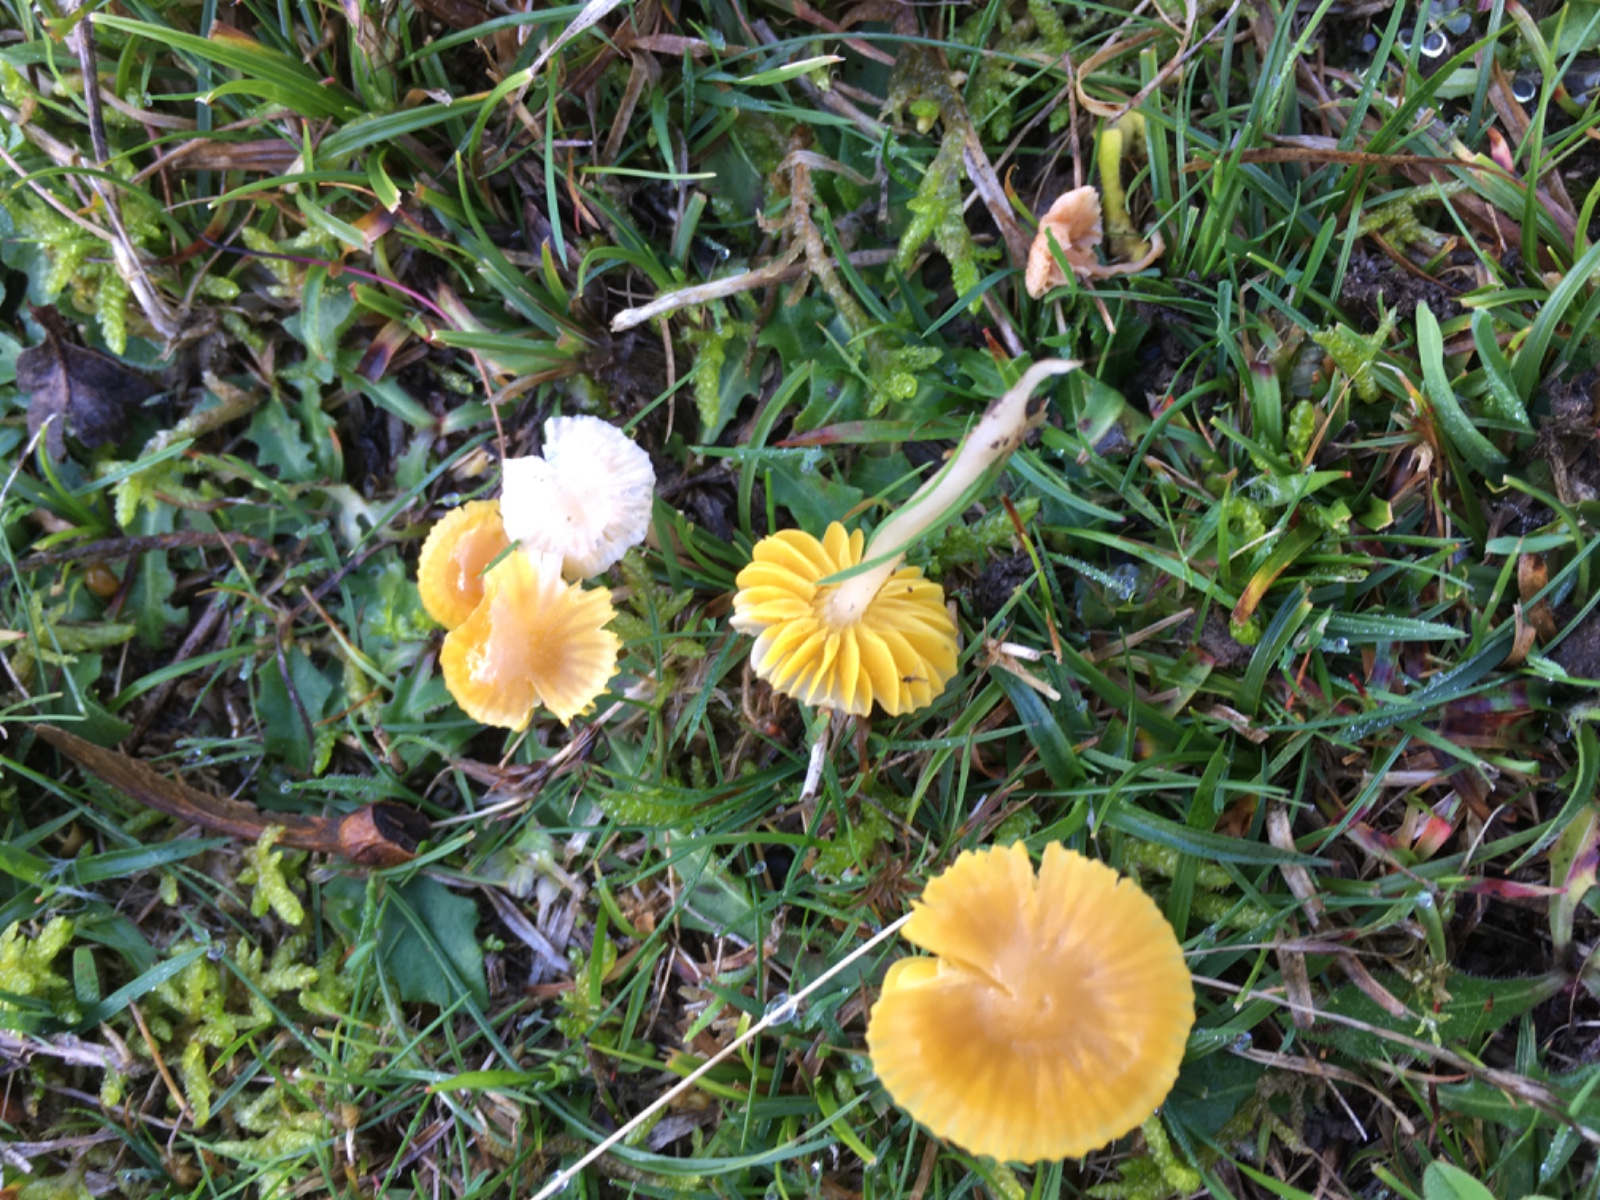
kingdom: Fungi
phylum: Basidiomycota
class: Agaricomycetes
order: Agaricales
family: Hygrophoraceae
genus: Gliophorus
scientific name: Gliophorus psittacinus
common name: papegøje-vokshat
